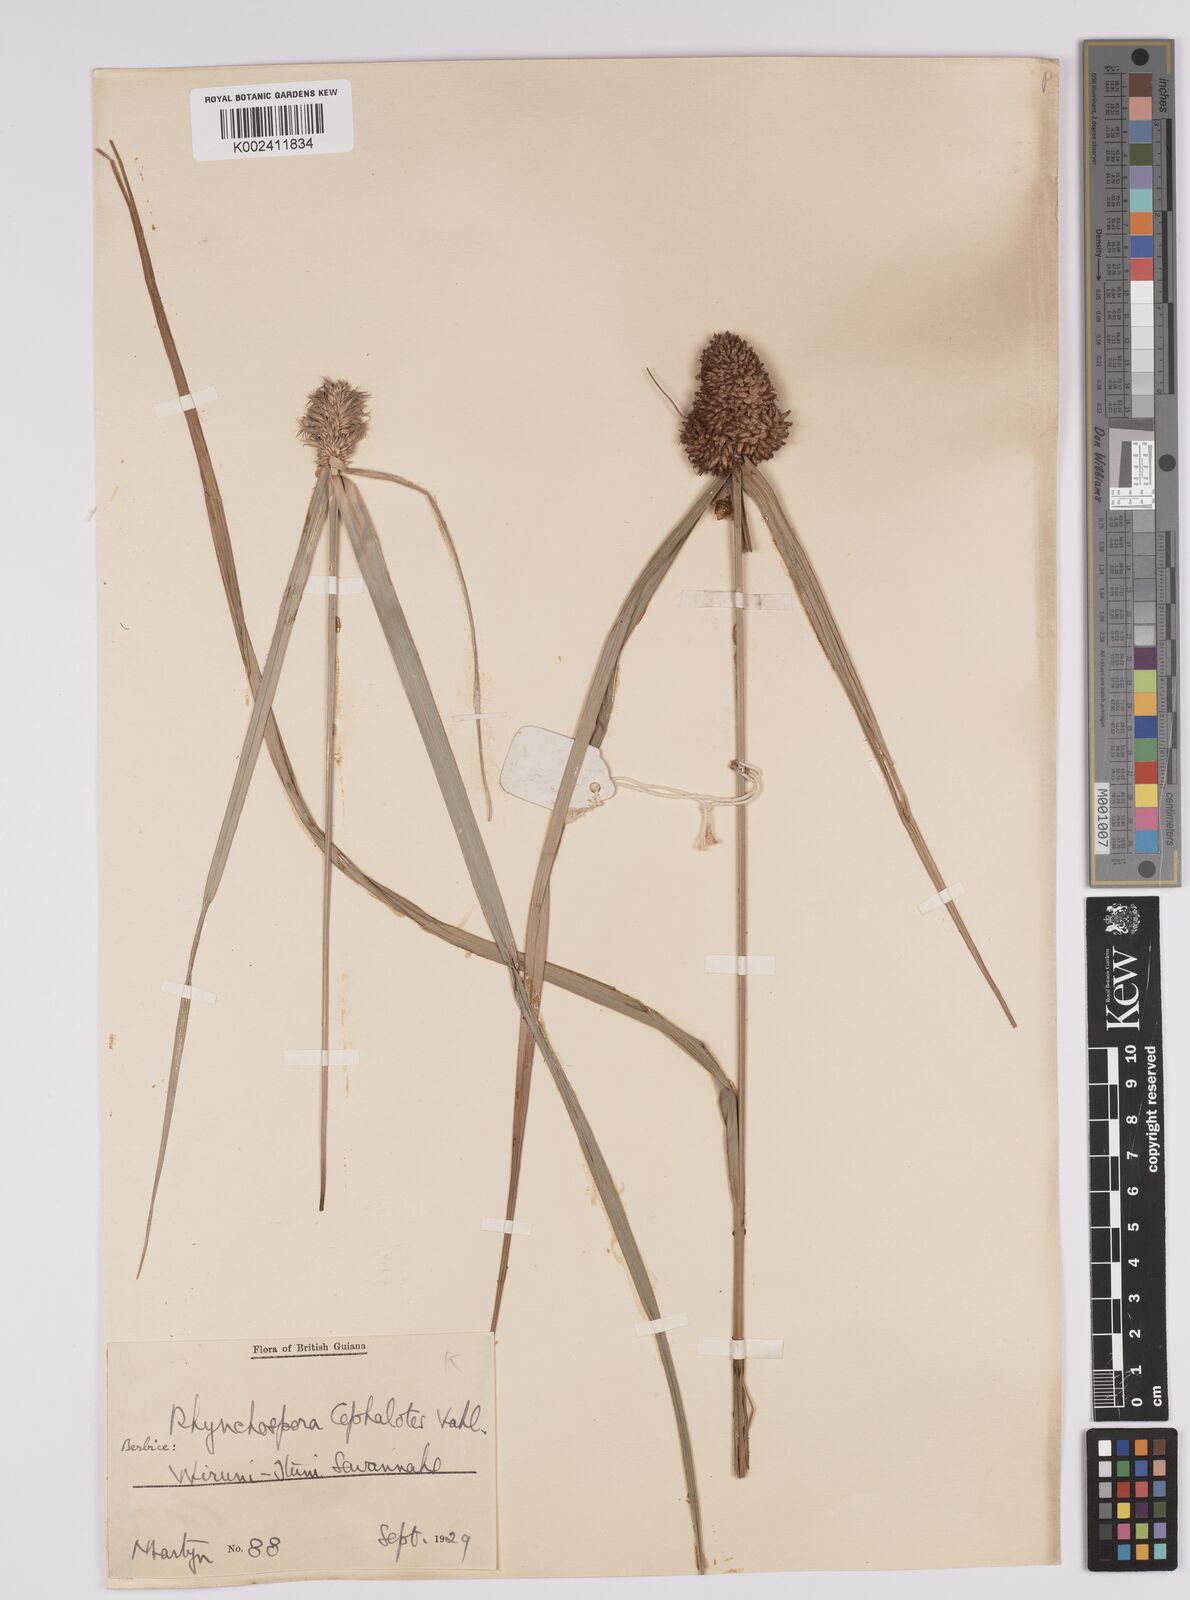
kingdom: Plantae
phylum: Tracheophyta
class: Liliopsida
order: Poales
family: Cyperaceae
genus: Rhynchospora
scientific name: Rhynchospora cephalotes
